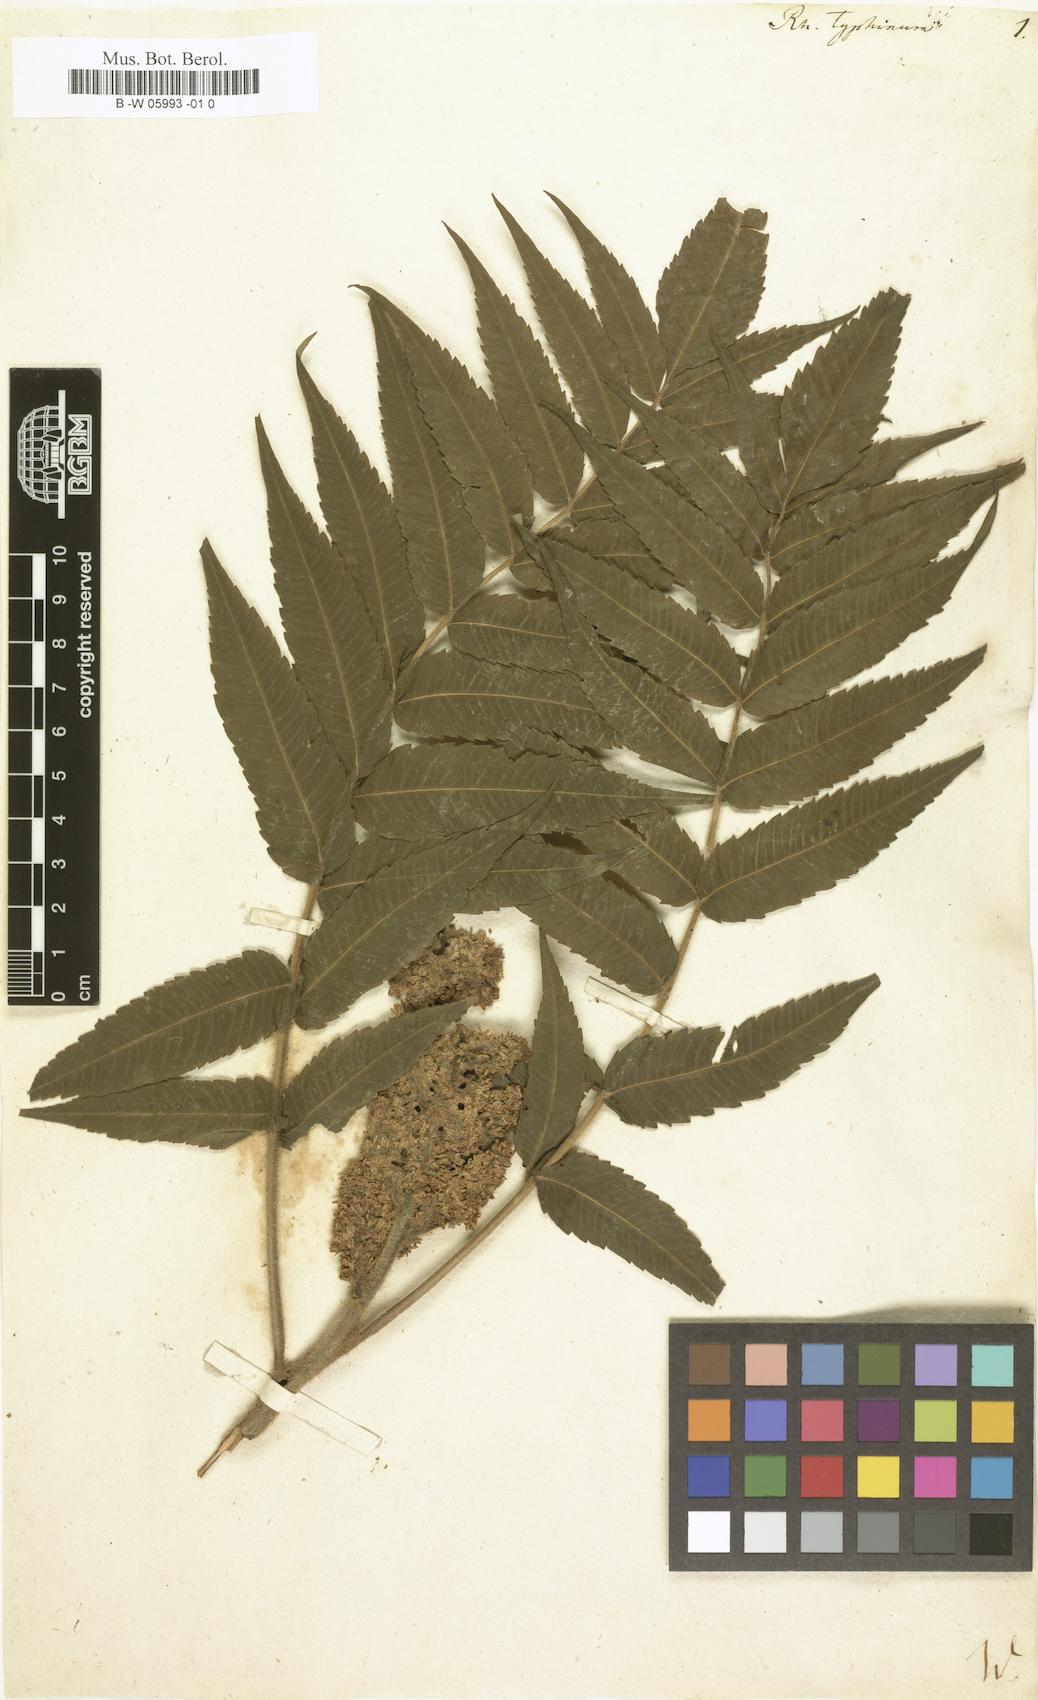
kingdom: Plantae
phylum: Tracheophyta
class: Magnoliopsida
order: Sapindales
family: Anacardiaceae
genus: Rhus
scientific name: Rhus typhina
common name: Staghorn sumac
